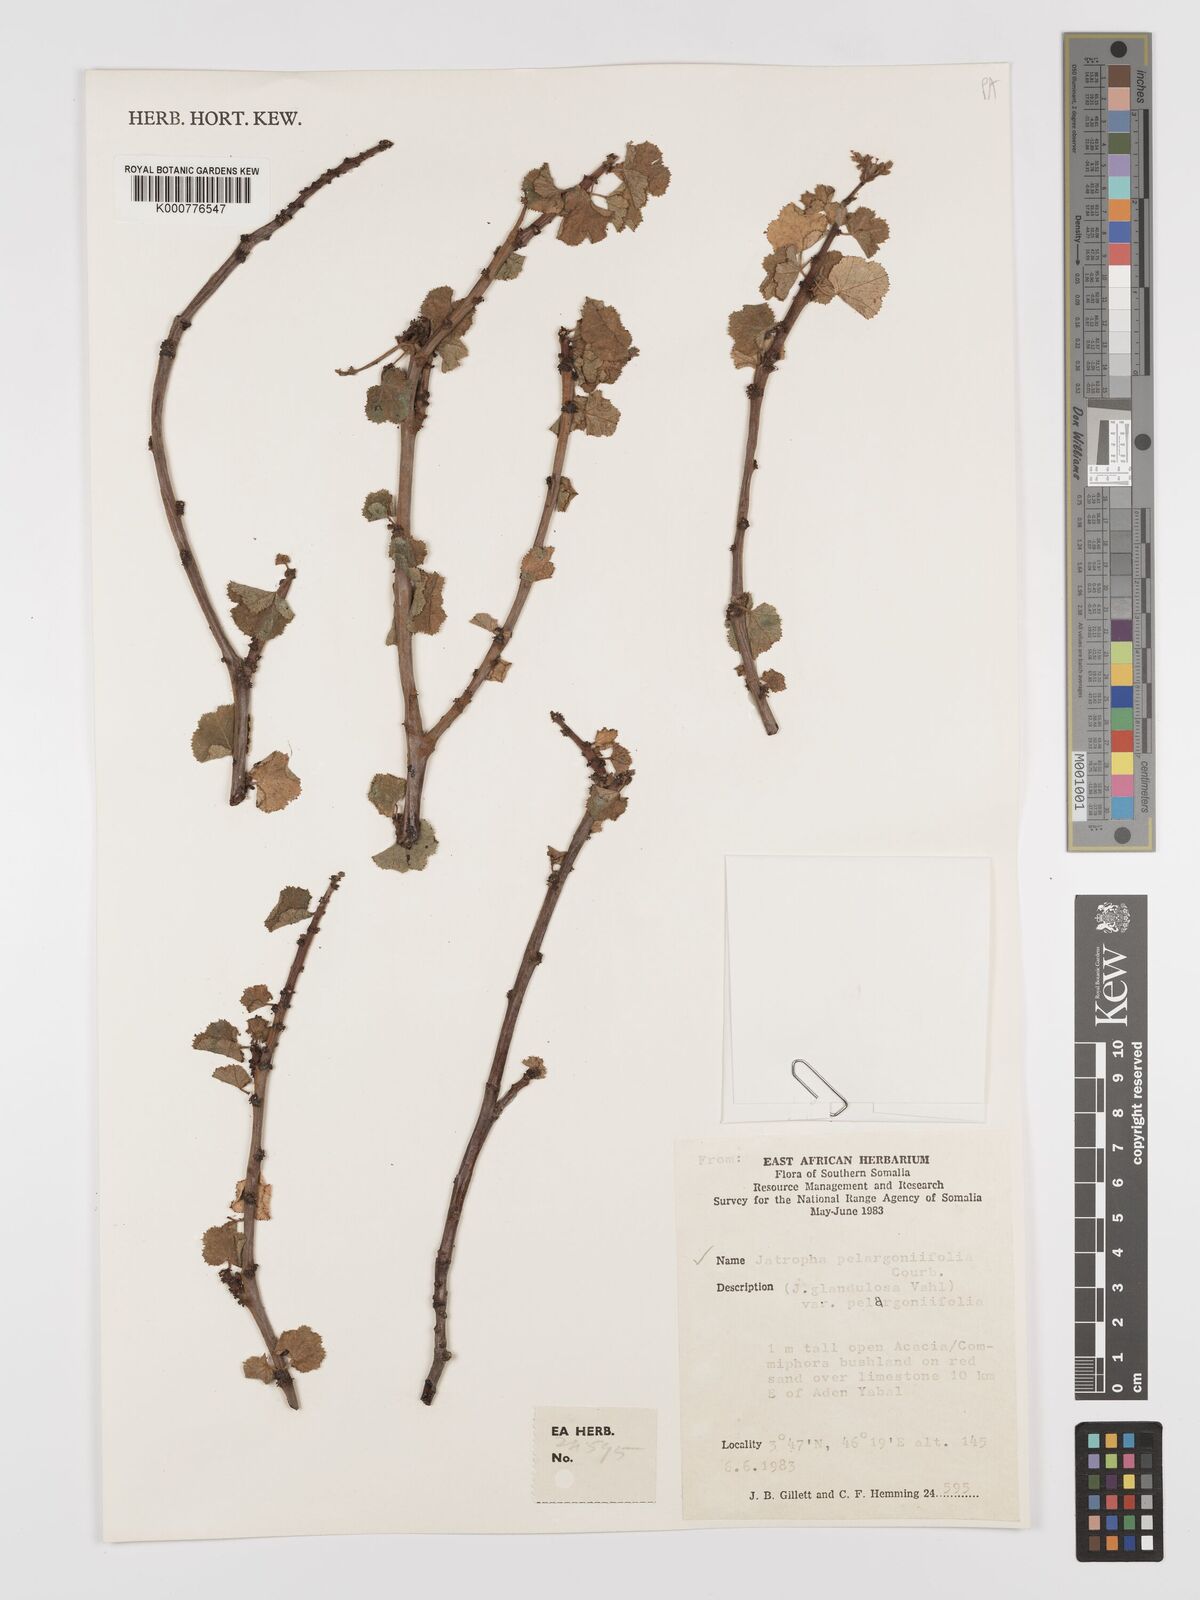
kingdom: Plantae
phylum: Tracheophyta
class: Magnoliopsida
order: Malpighiales
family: Euphorbiaceae
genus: Jatropha
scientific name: Jatropha pelargoniifolia
